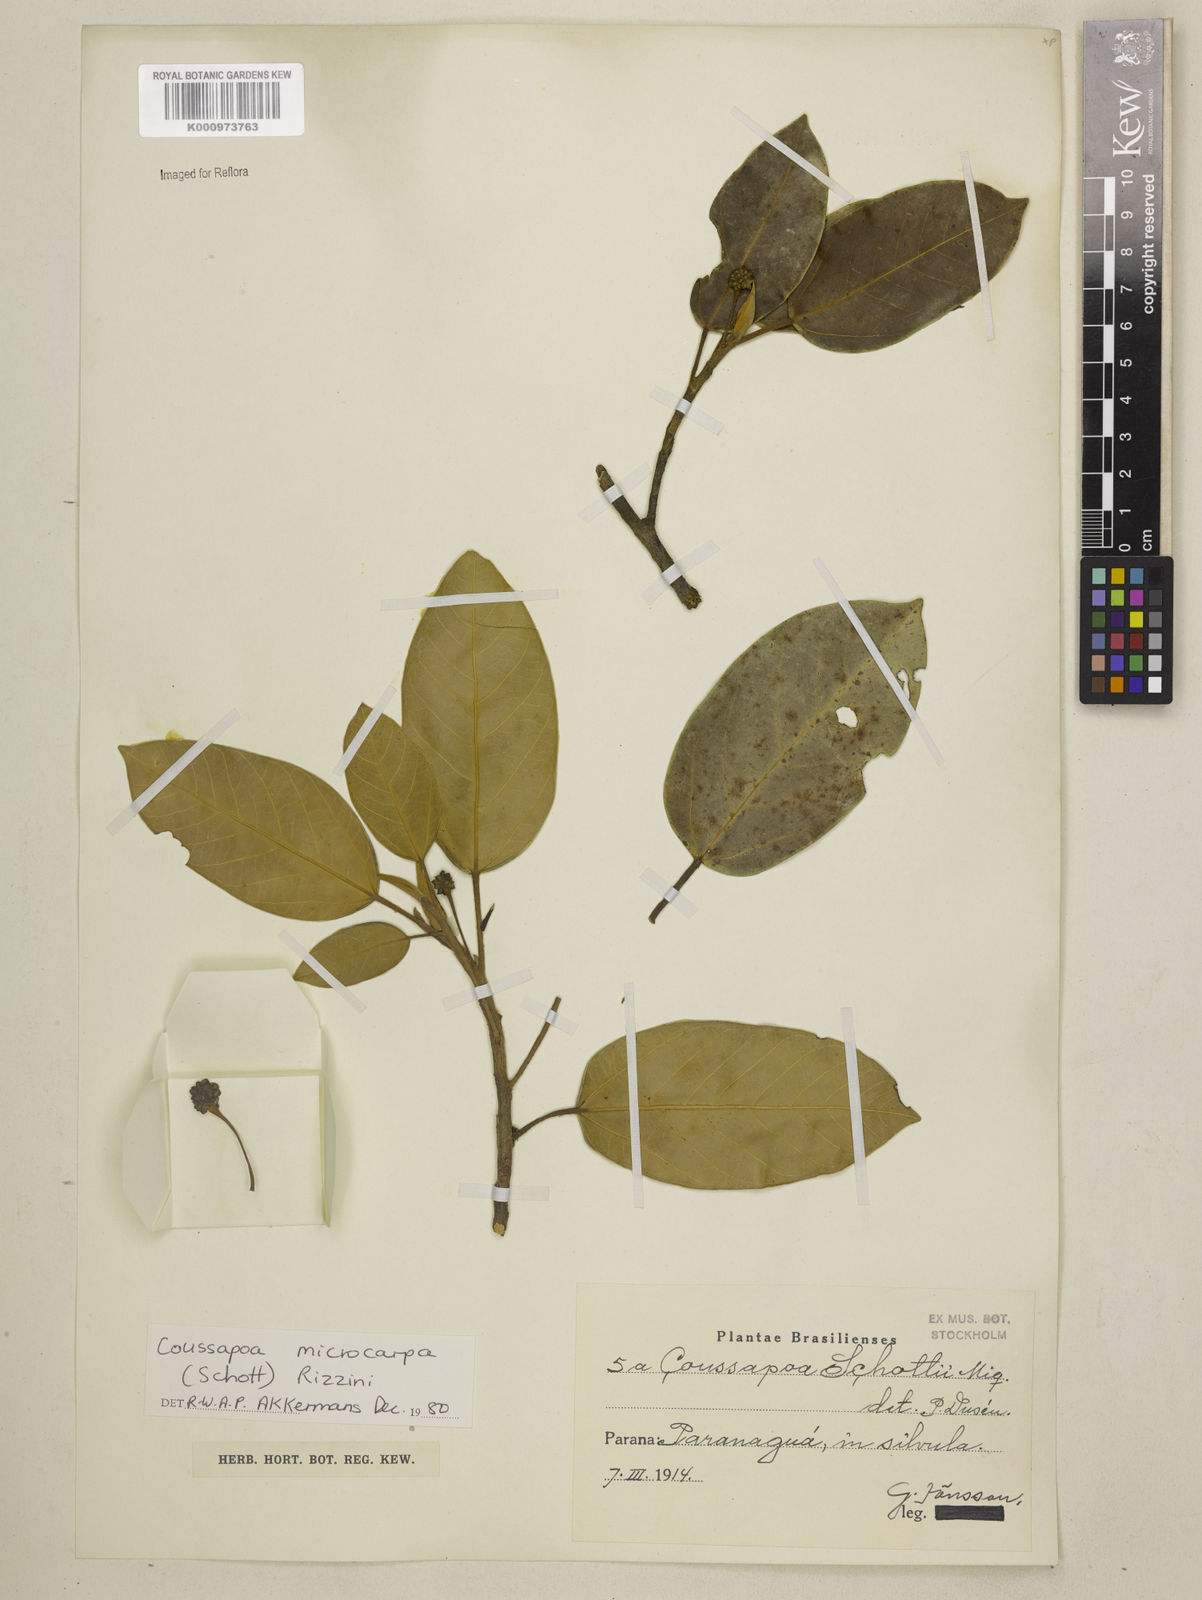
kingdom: Plantae
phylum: Tracheophyta
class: Magnoliopsida
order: Rosales
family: Urticaceae
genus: Coussapoa
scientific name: Coussapoa microcarpa
